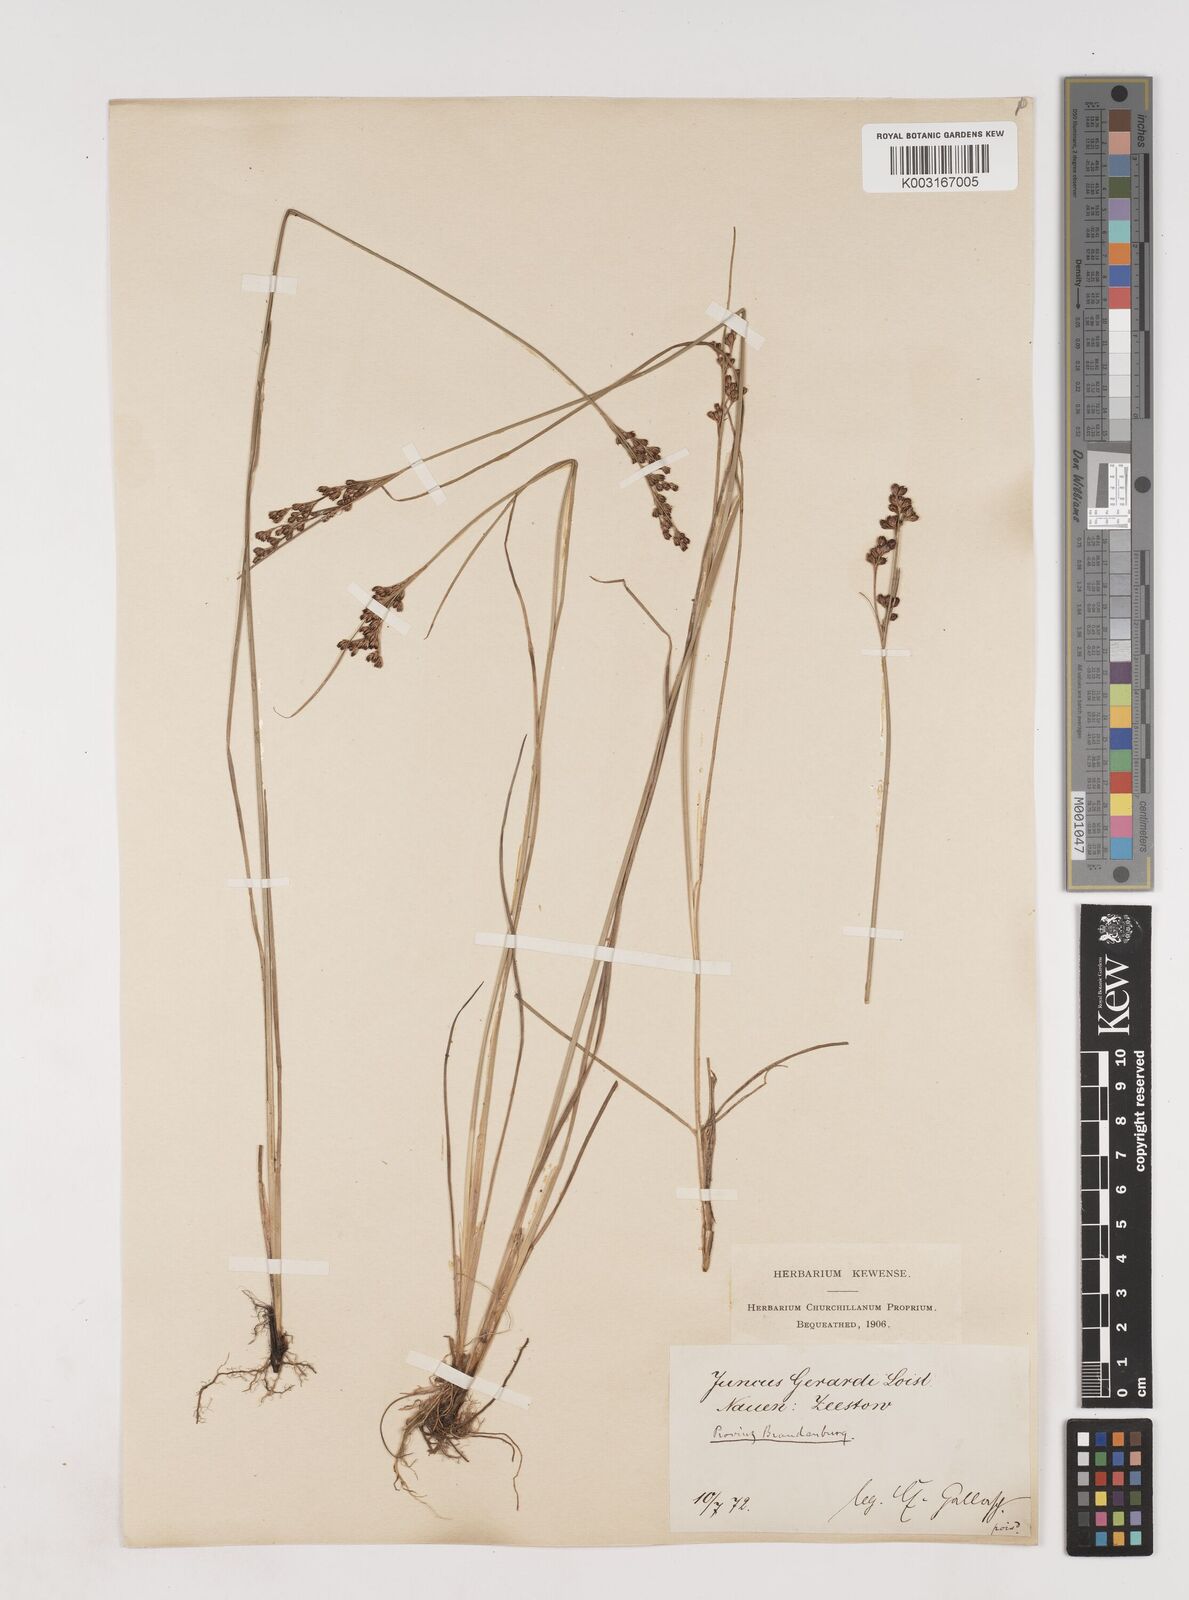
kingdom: Plantae
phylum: Tracheophyta
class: Liliopsida
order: Poales
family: Juncaceae
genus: Juncus
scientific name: Juncus gerardi
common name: Saltmarsh rush
